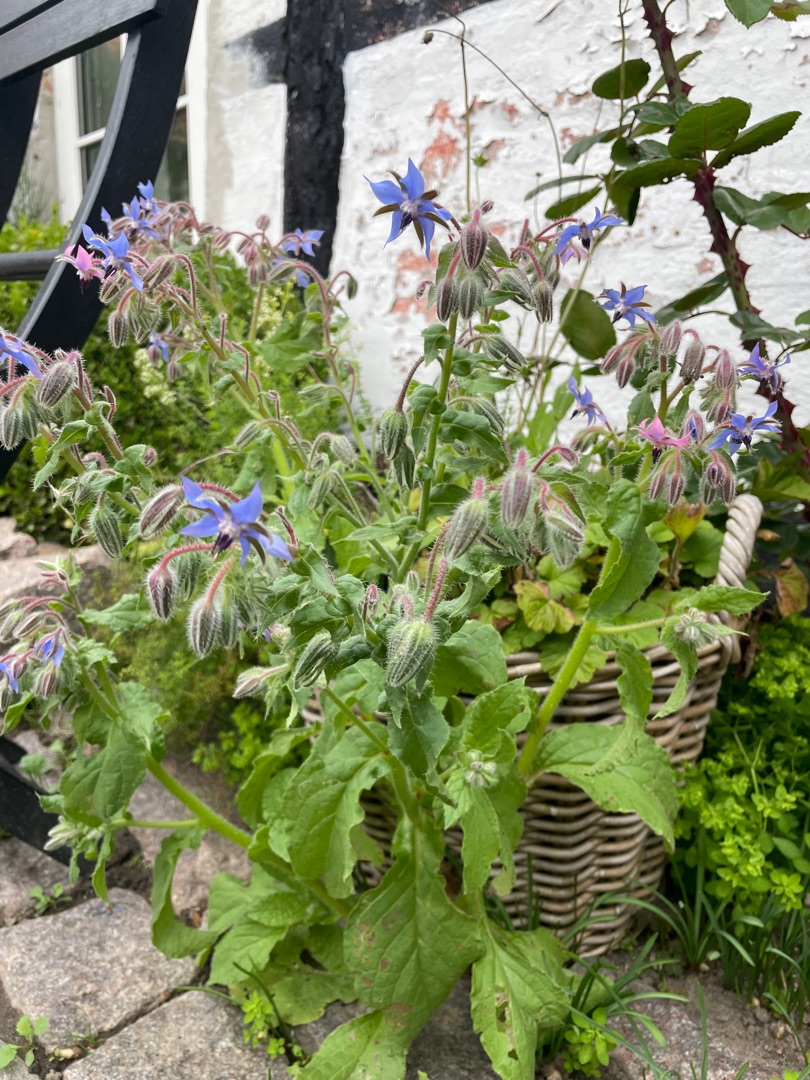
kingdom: Plantae
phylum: Tracheophyta
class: Magnoliopsida
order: Boraginales
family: Boraginaceae
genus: Borago
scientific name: Borago officinalis
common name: Hjulkrone
